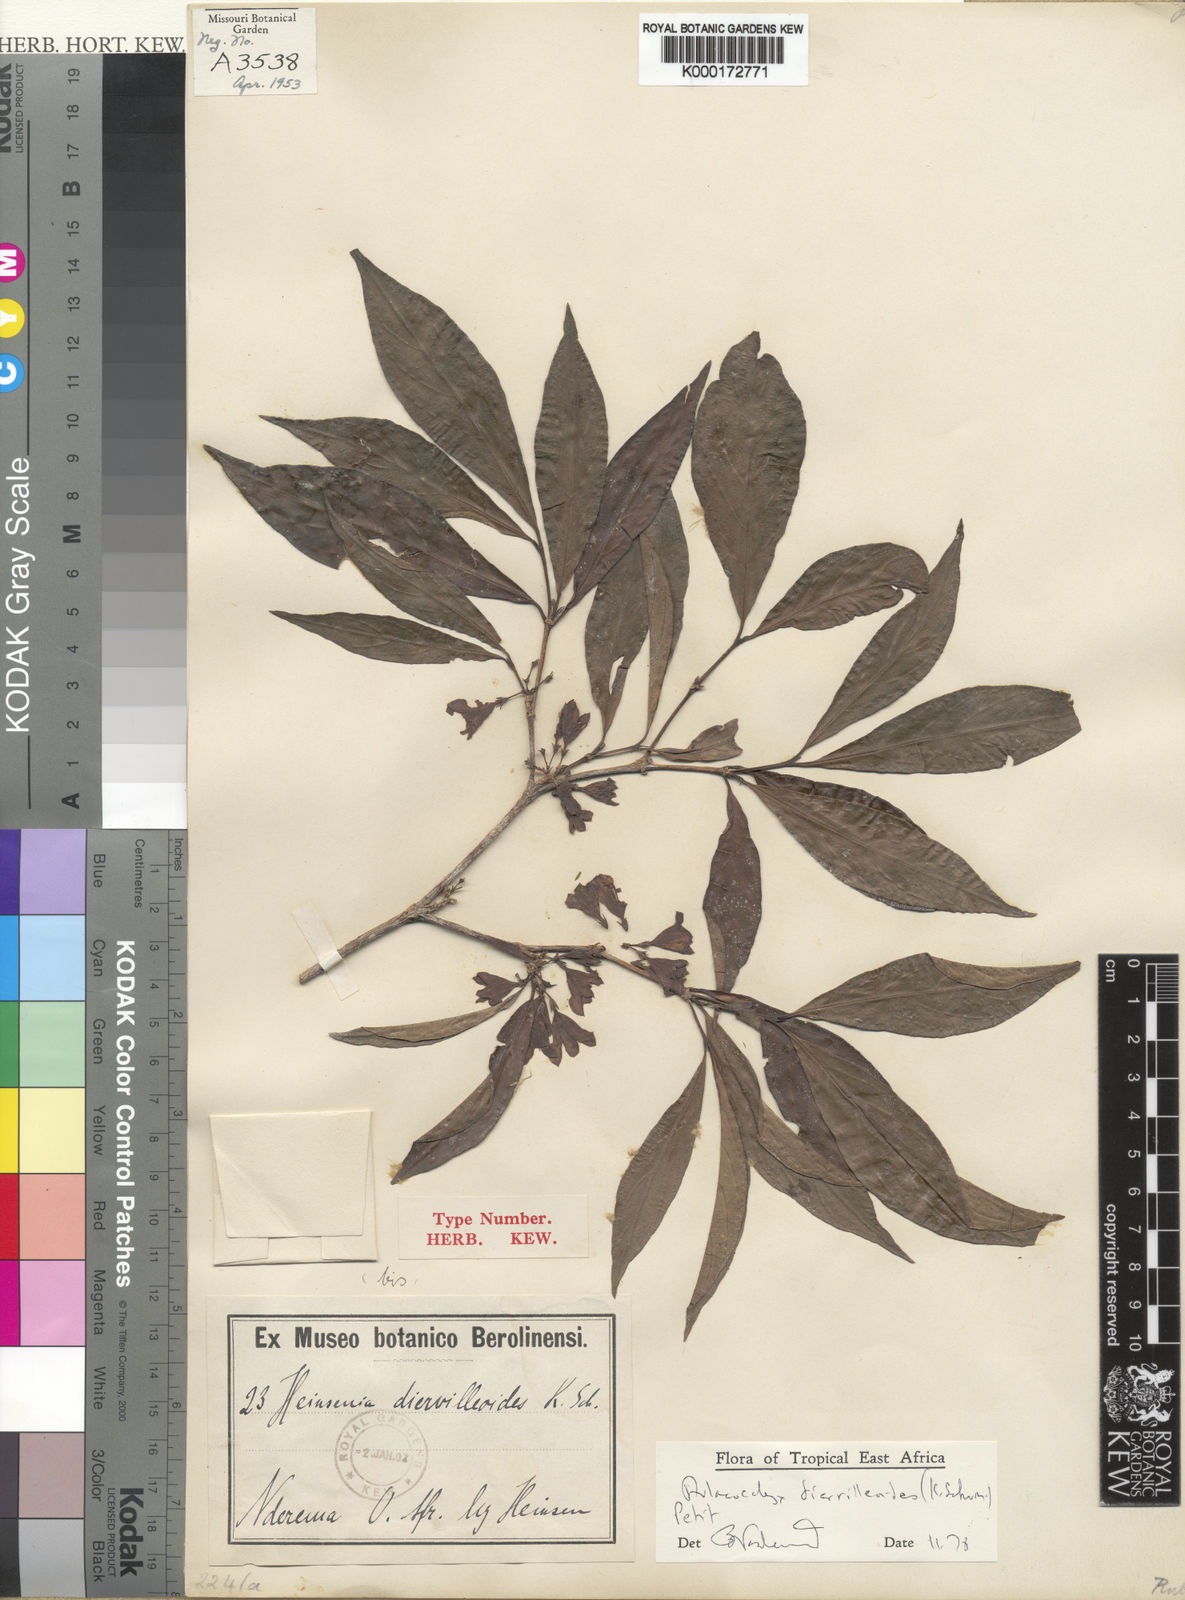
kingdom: Plantae
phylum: Tracheophyta
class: Magnoliopsida
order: Gentianales
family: Rubiaceae
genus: Heinsenia
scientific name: Heinsenia diervilleoides
